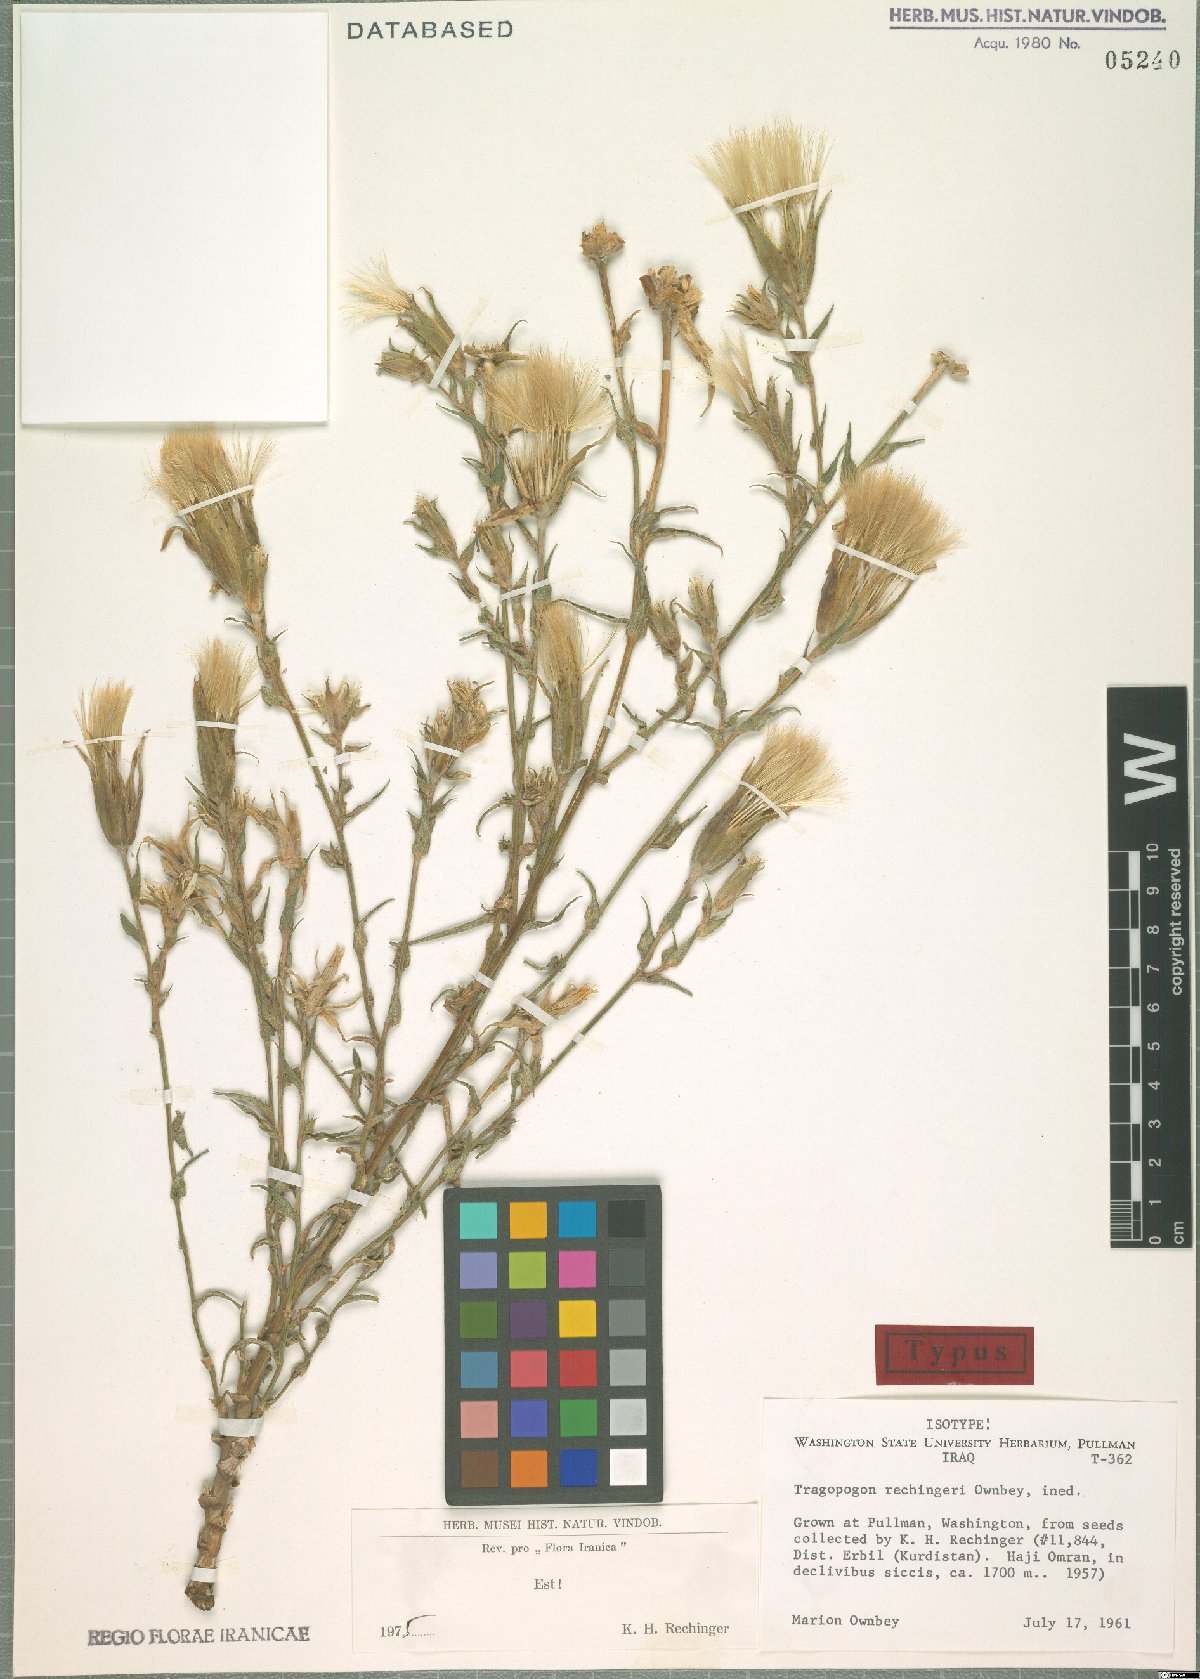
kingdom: Plantae
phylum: Tracheophyta
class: Magnoliopsida
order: Asterales
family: Asteraceae
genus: Tragopogon
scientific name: Tragopogon rechingeri
